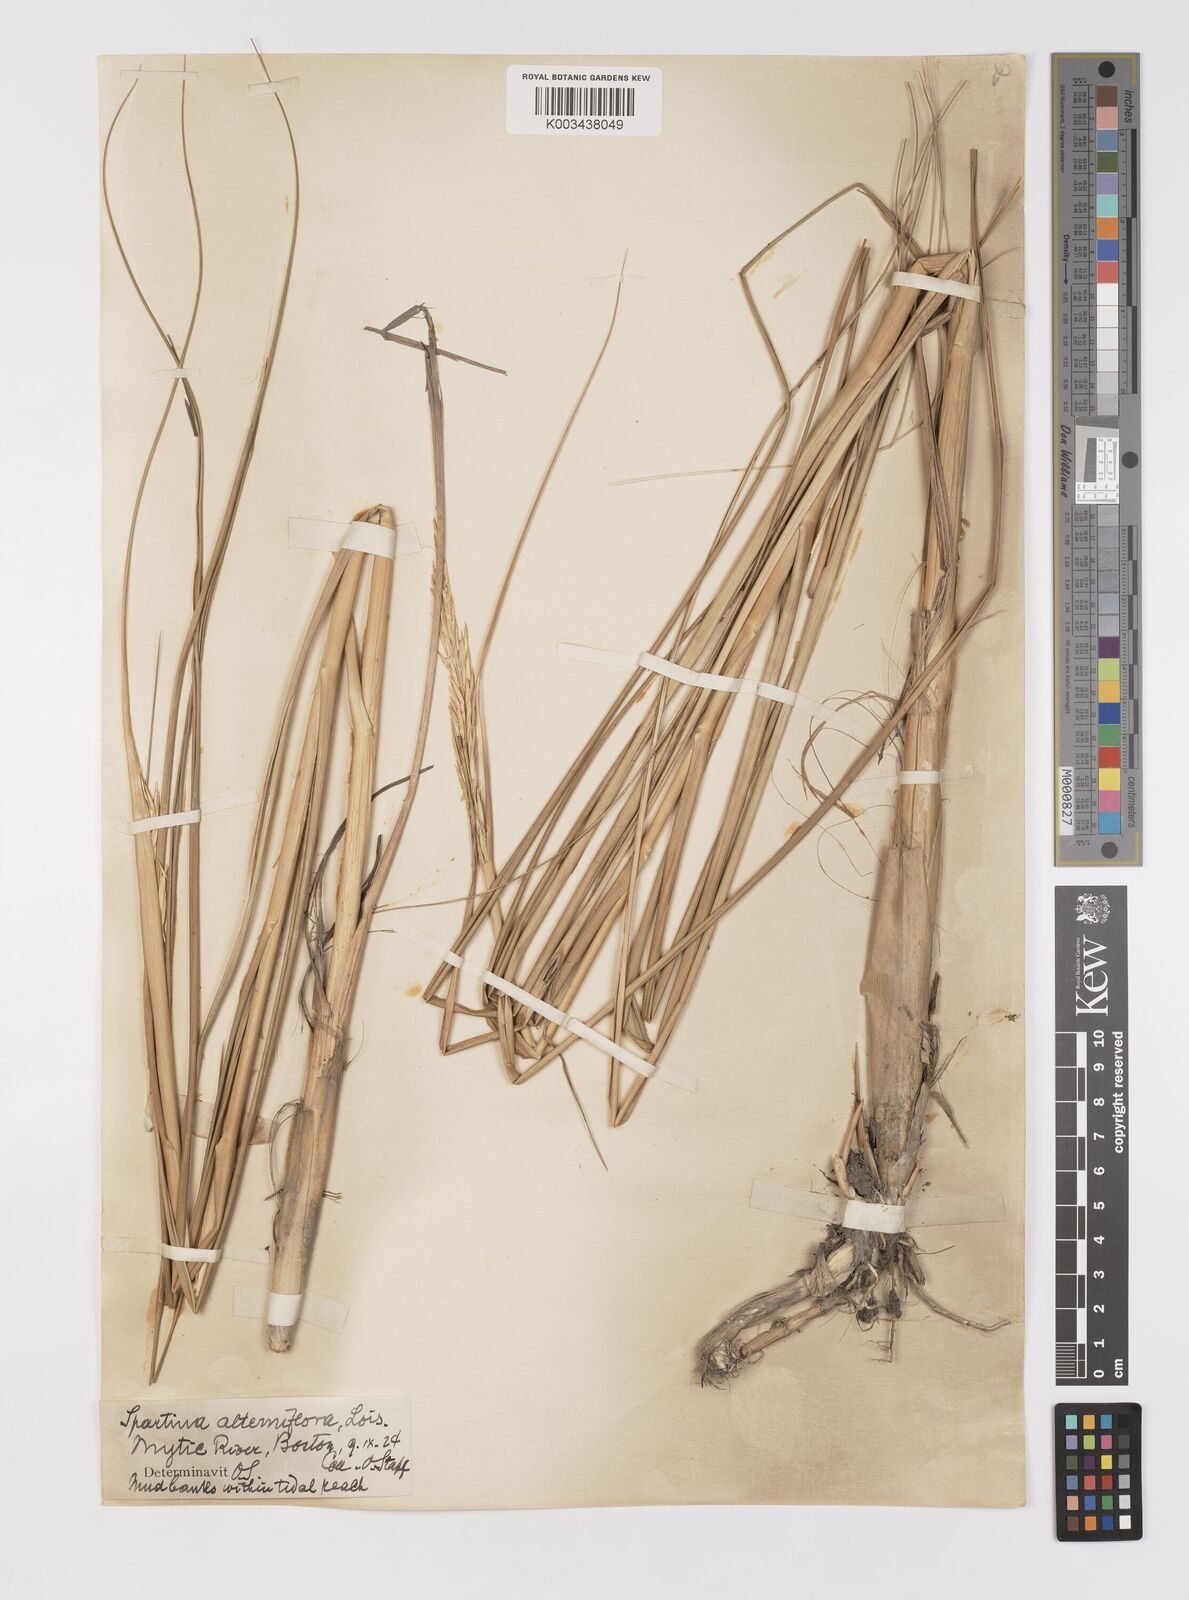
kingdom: Plantae
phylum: Tracheophyta
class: Liliopsida
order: Poales
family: Poaceae
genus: Sporobolus
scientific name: Sporobolus coarctatus
